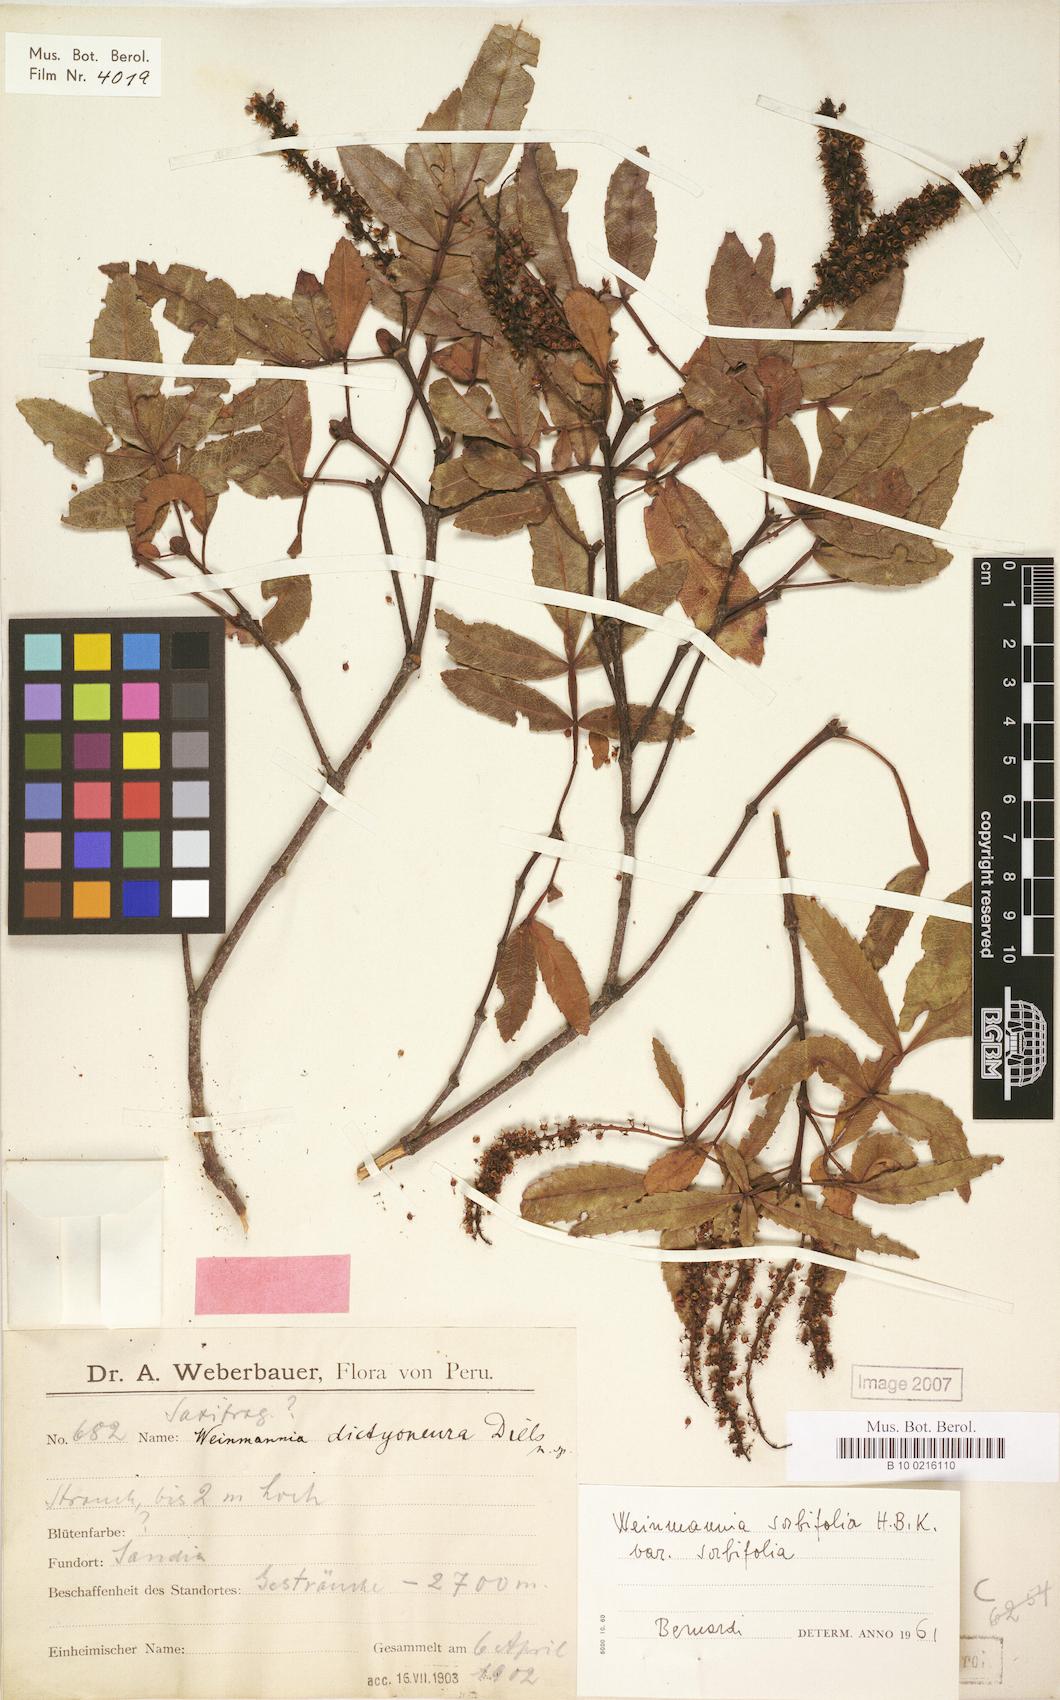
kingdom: Plantae
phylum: Tracheophyta
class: Magnoliopsida
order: Oxalidales
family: Cunoniaceae
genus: Weinmannia
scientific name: Weinmannia sorbifolia
